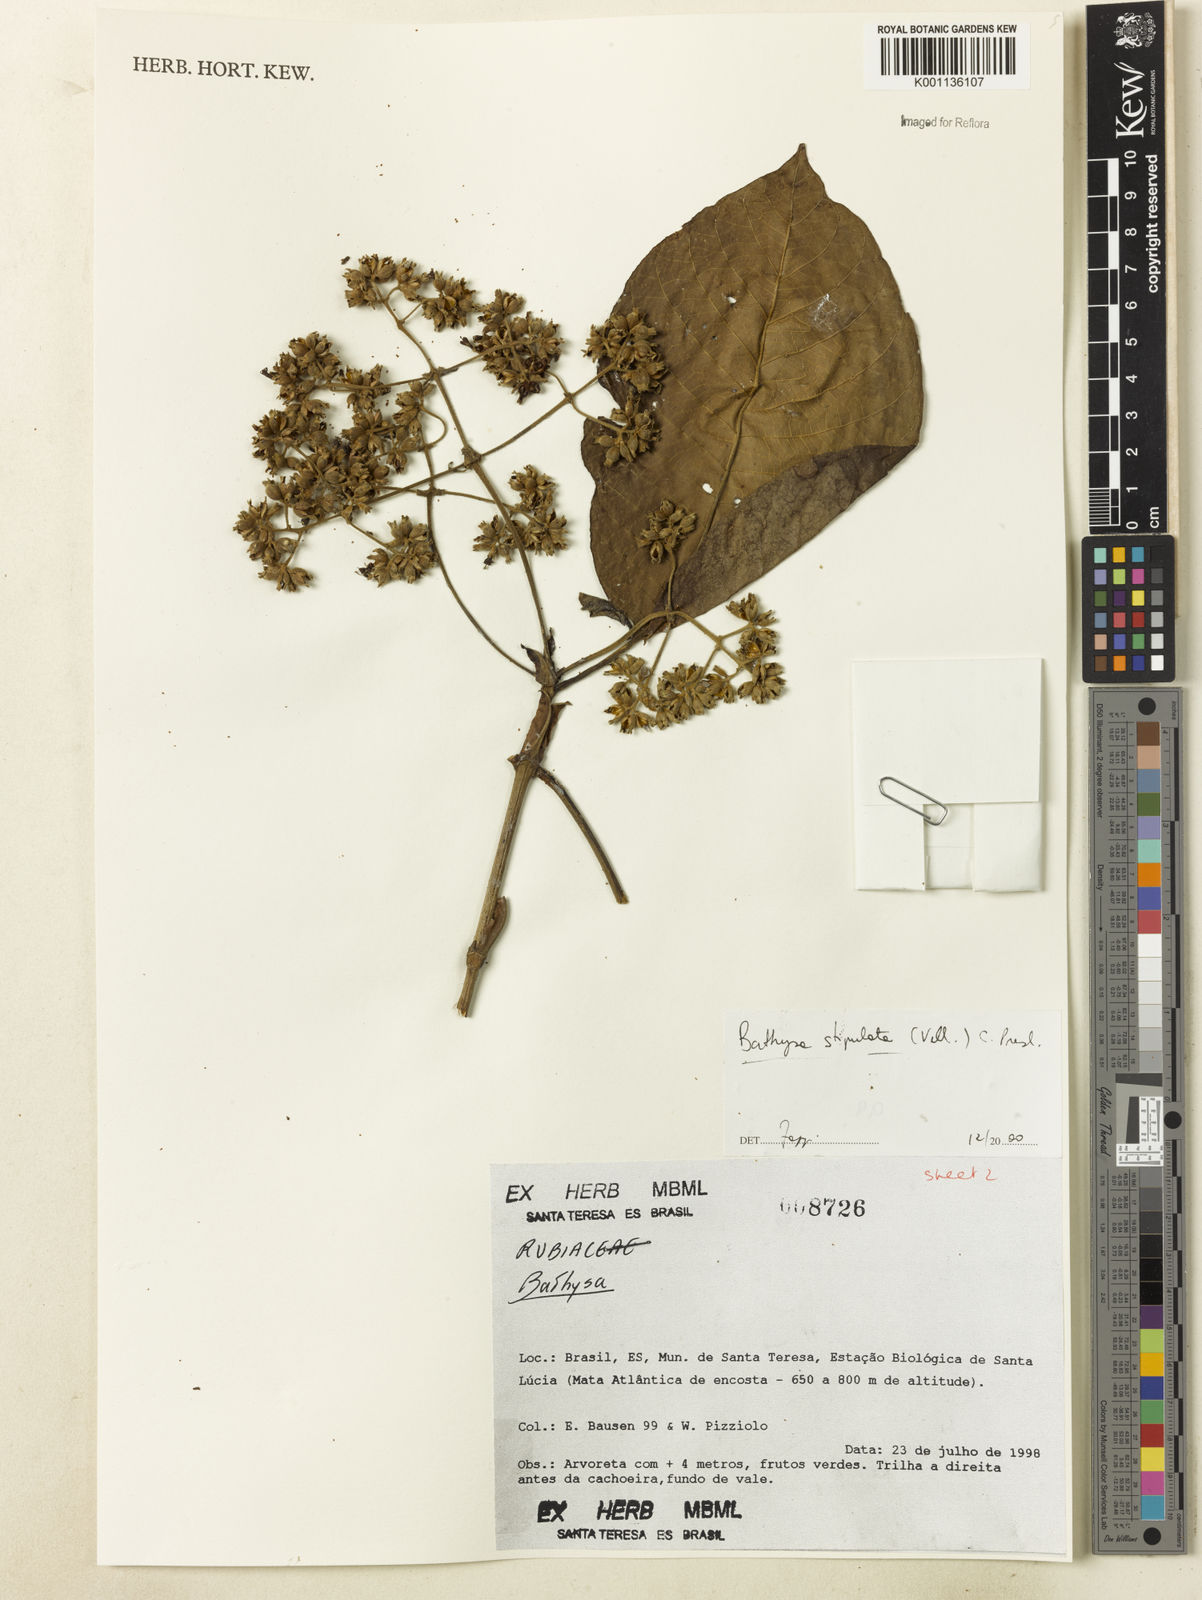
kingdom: Plantae
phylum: Tracheophyta
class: Magnoliopsida
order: Gentianales
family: Rubiaceae
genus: Bathysa
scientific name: Bathysa stipulata
